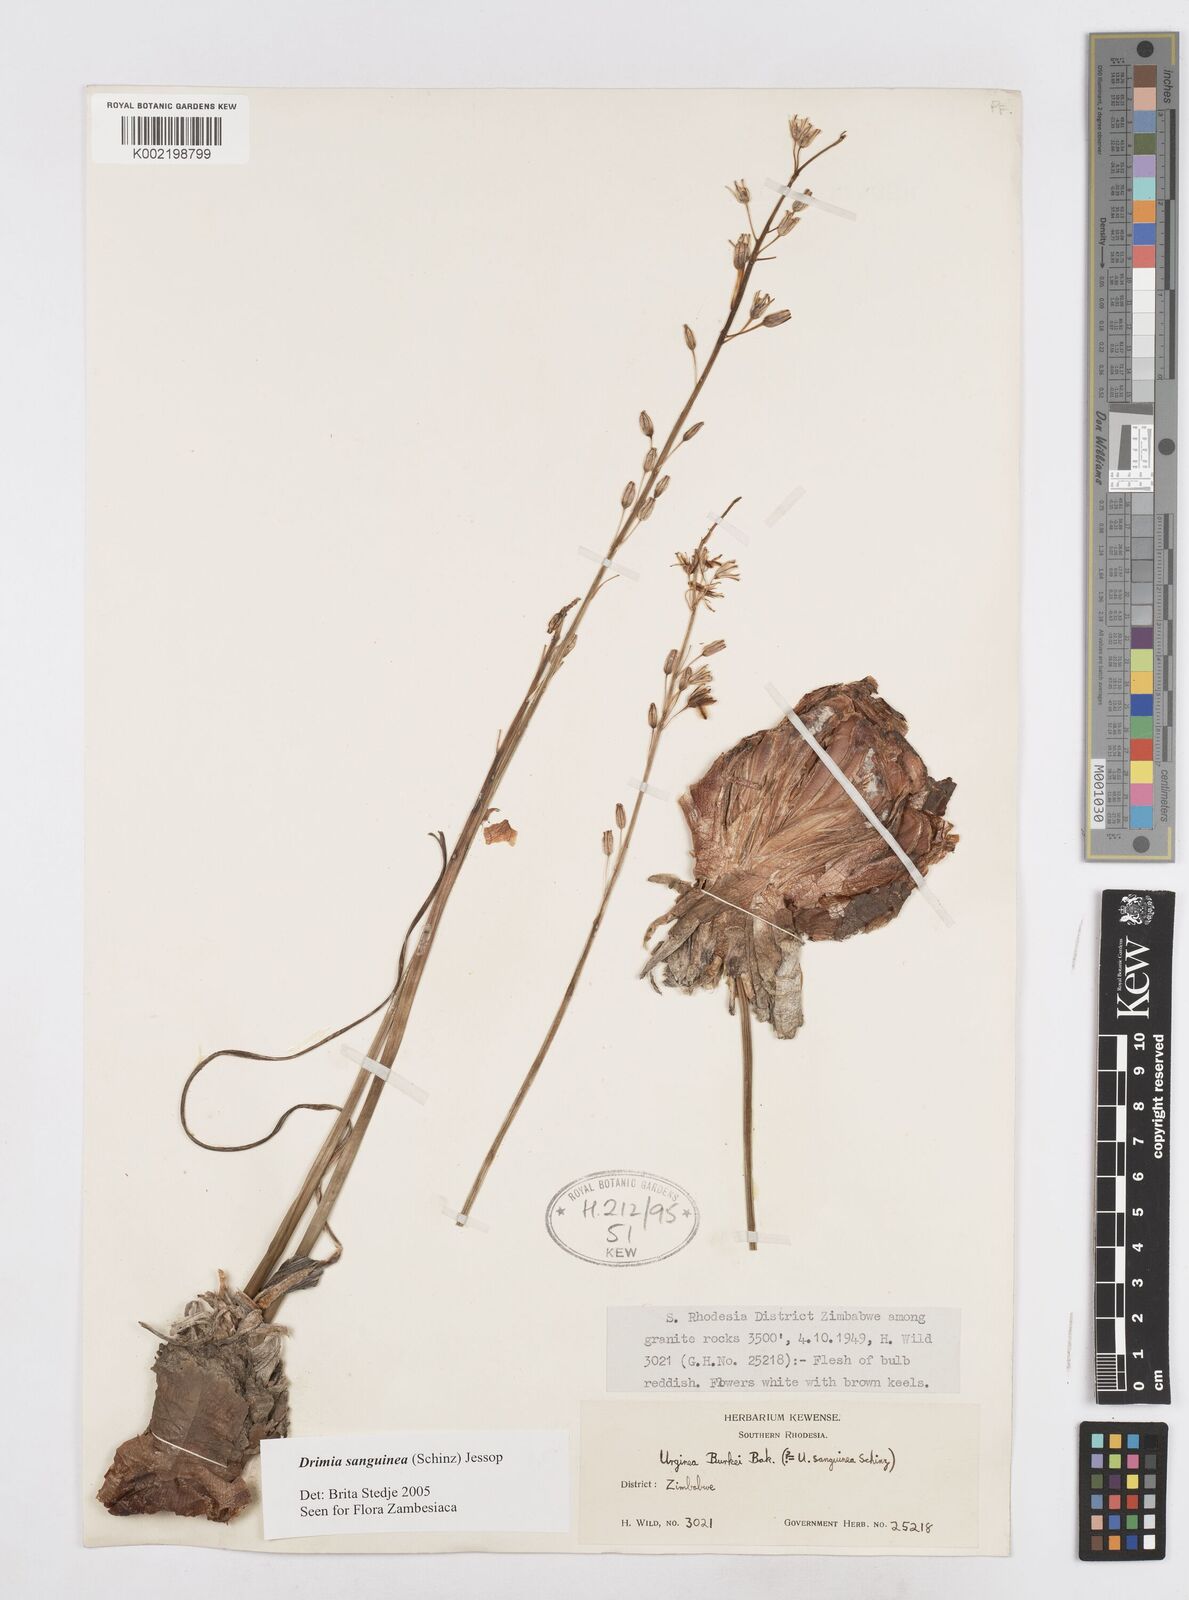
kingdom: Plantae
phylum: Tracheophyta
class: Liliopsida
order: Asparagales
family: Asparagaceae
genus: Drimia
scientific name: Drimia sanguinea
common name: Transvaal slangkop
